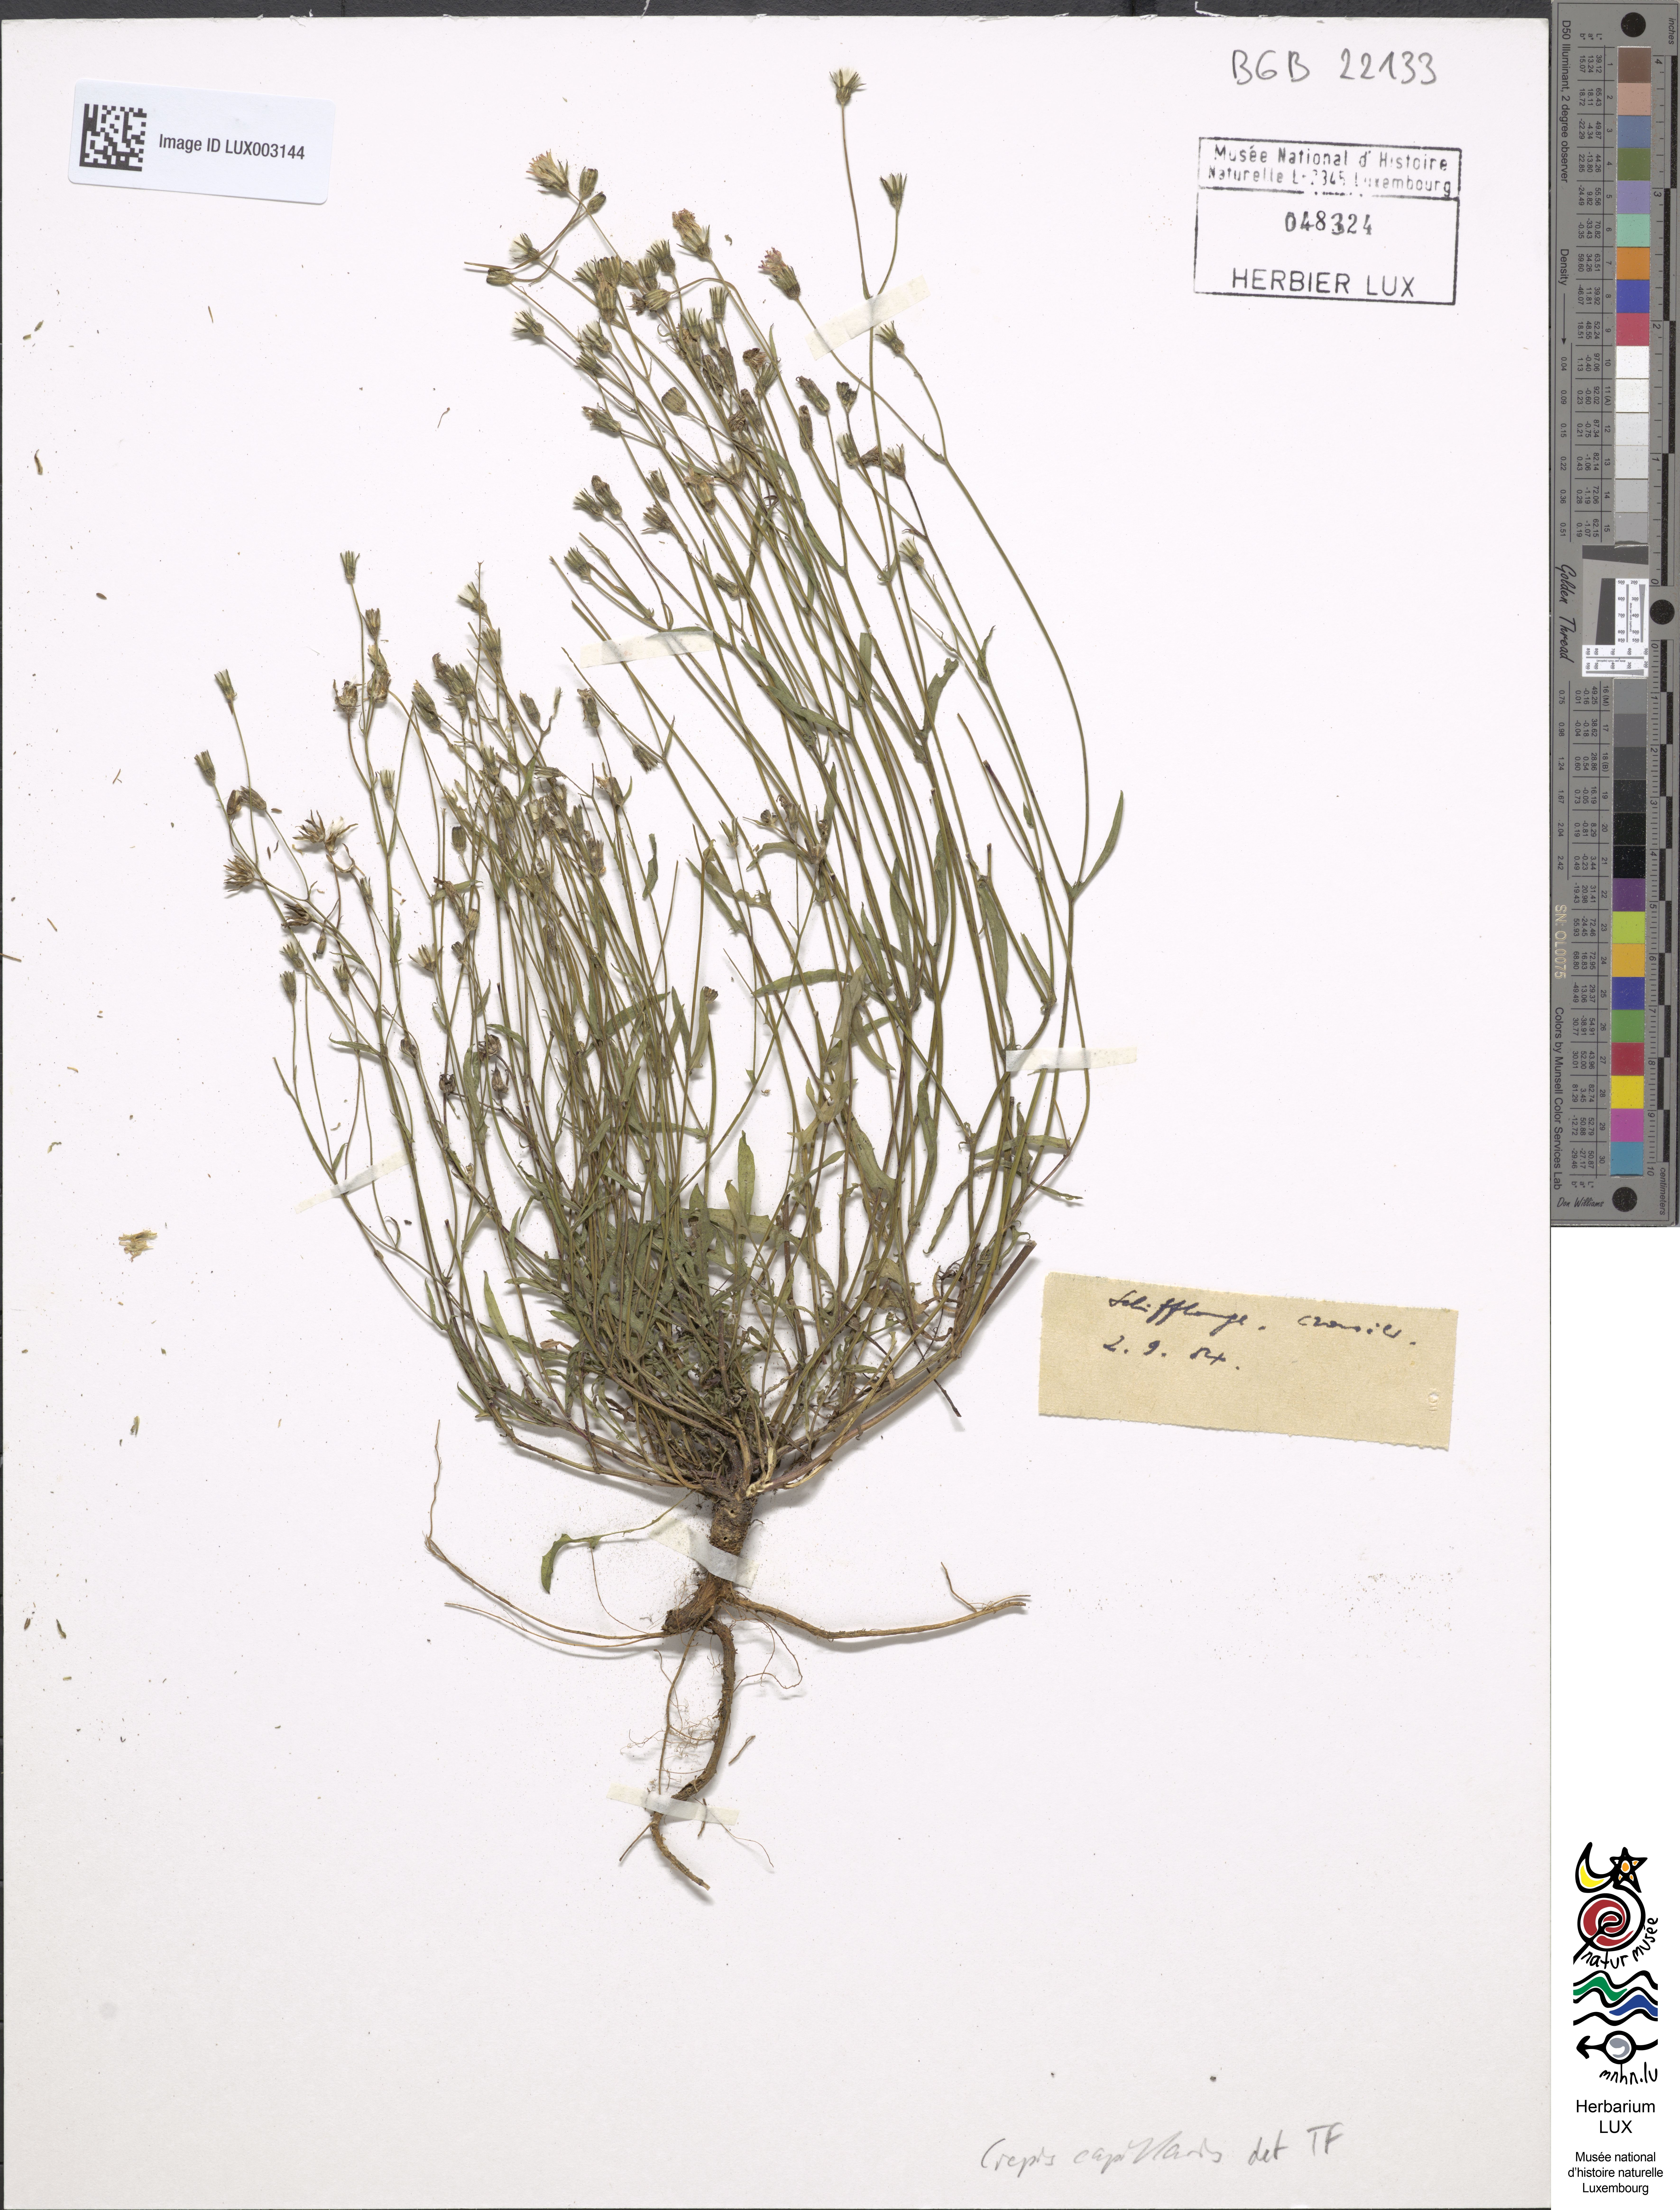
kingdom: Plantae
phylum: Tracheophyta
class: Magnoliopsida
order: Asterales
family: Asteraceae
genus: Crepis
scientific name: Crepis capillaris
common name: Smooth hawksbeard
